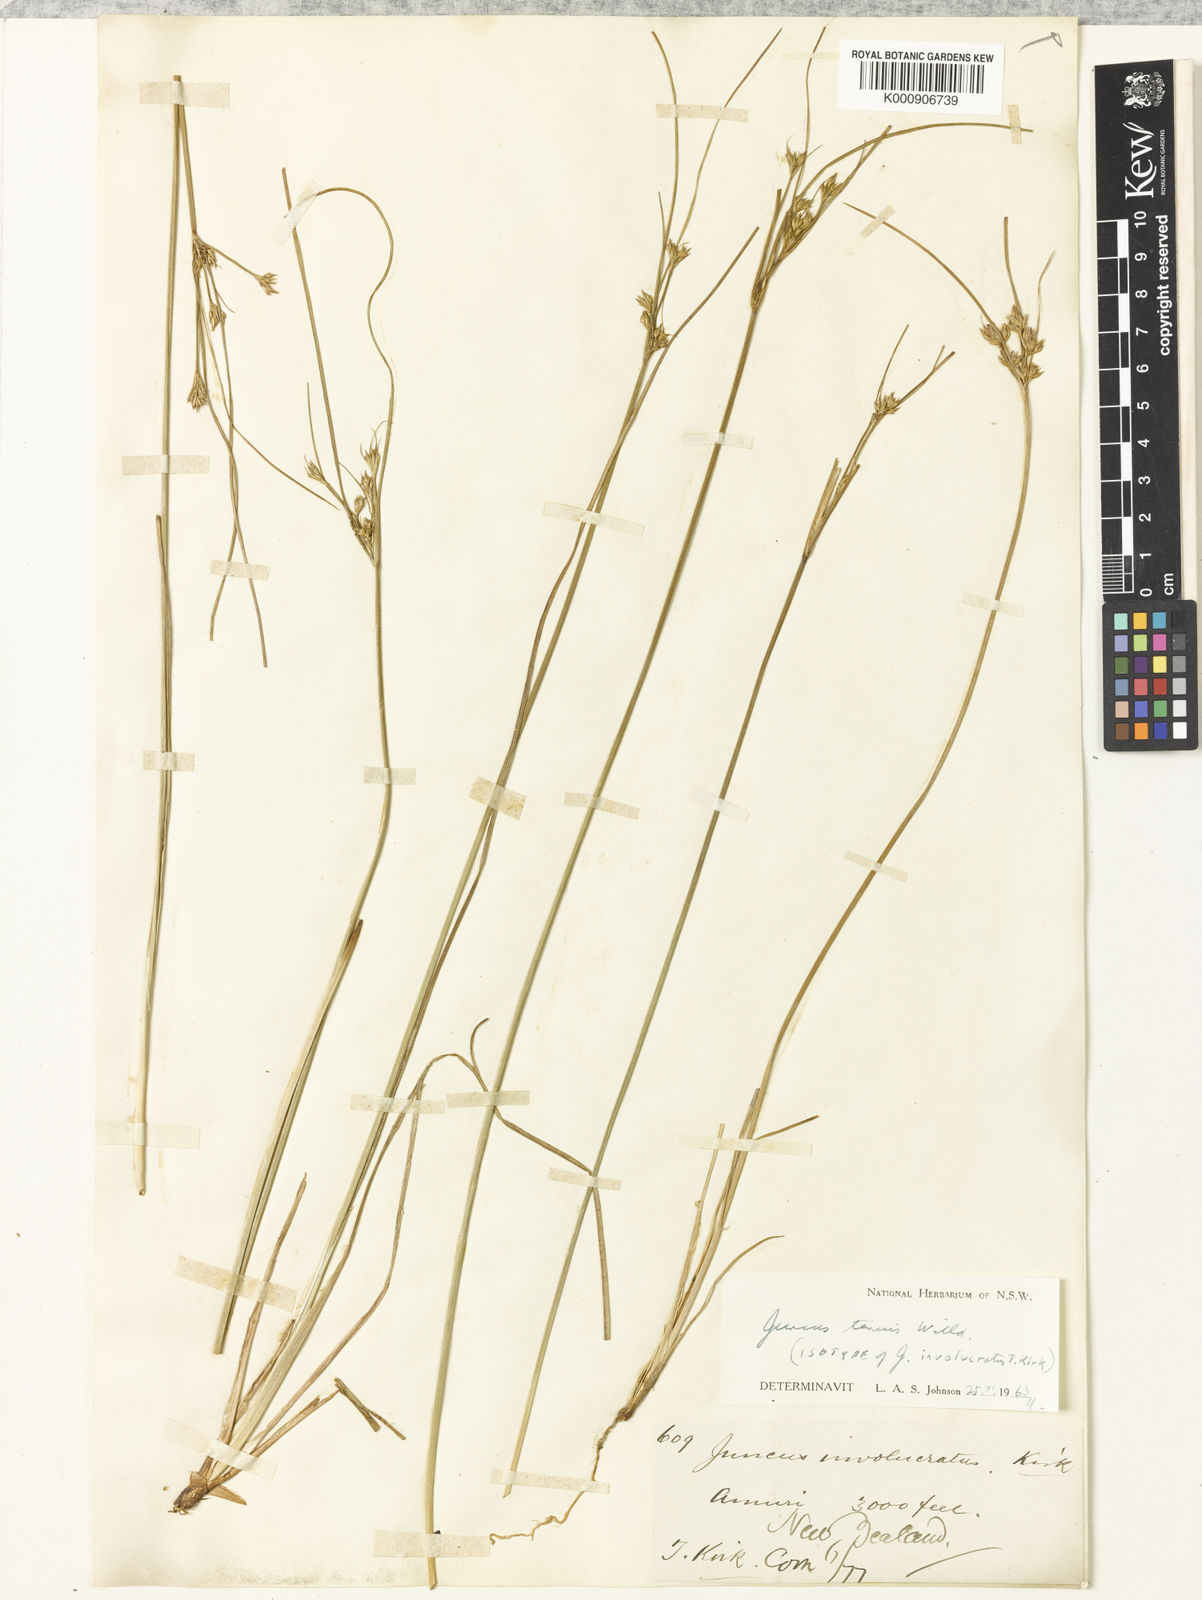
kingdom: Plantae
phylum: Tracheophyta
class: Liliopsida
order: Poales
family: Juncaceae
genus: Juncus
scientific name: Juncus tenuis
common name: Slender rush
